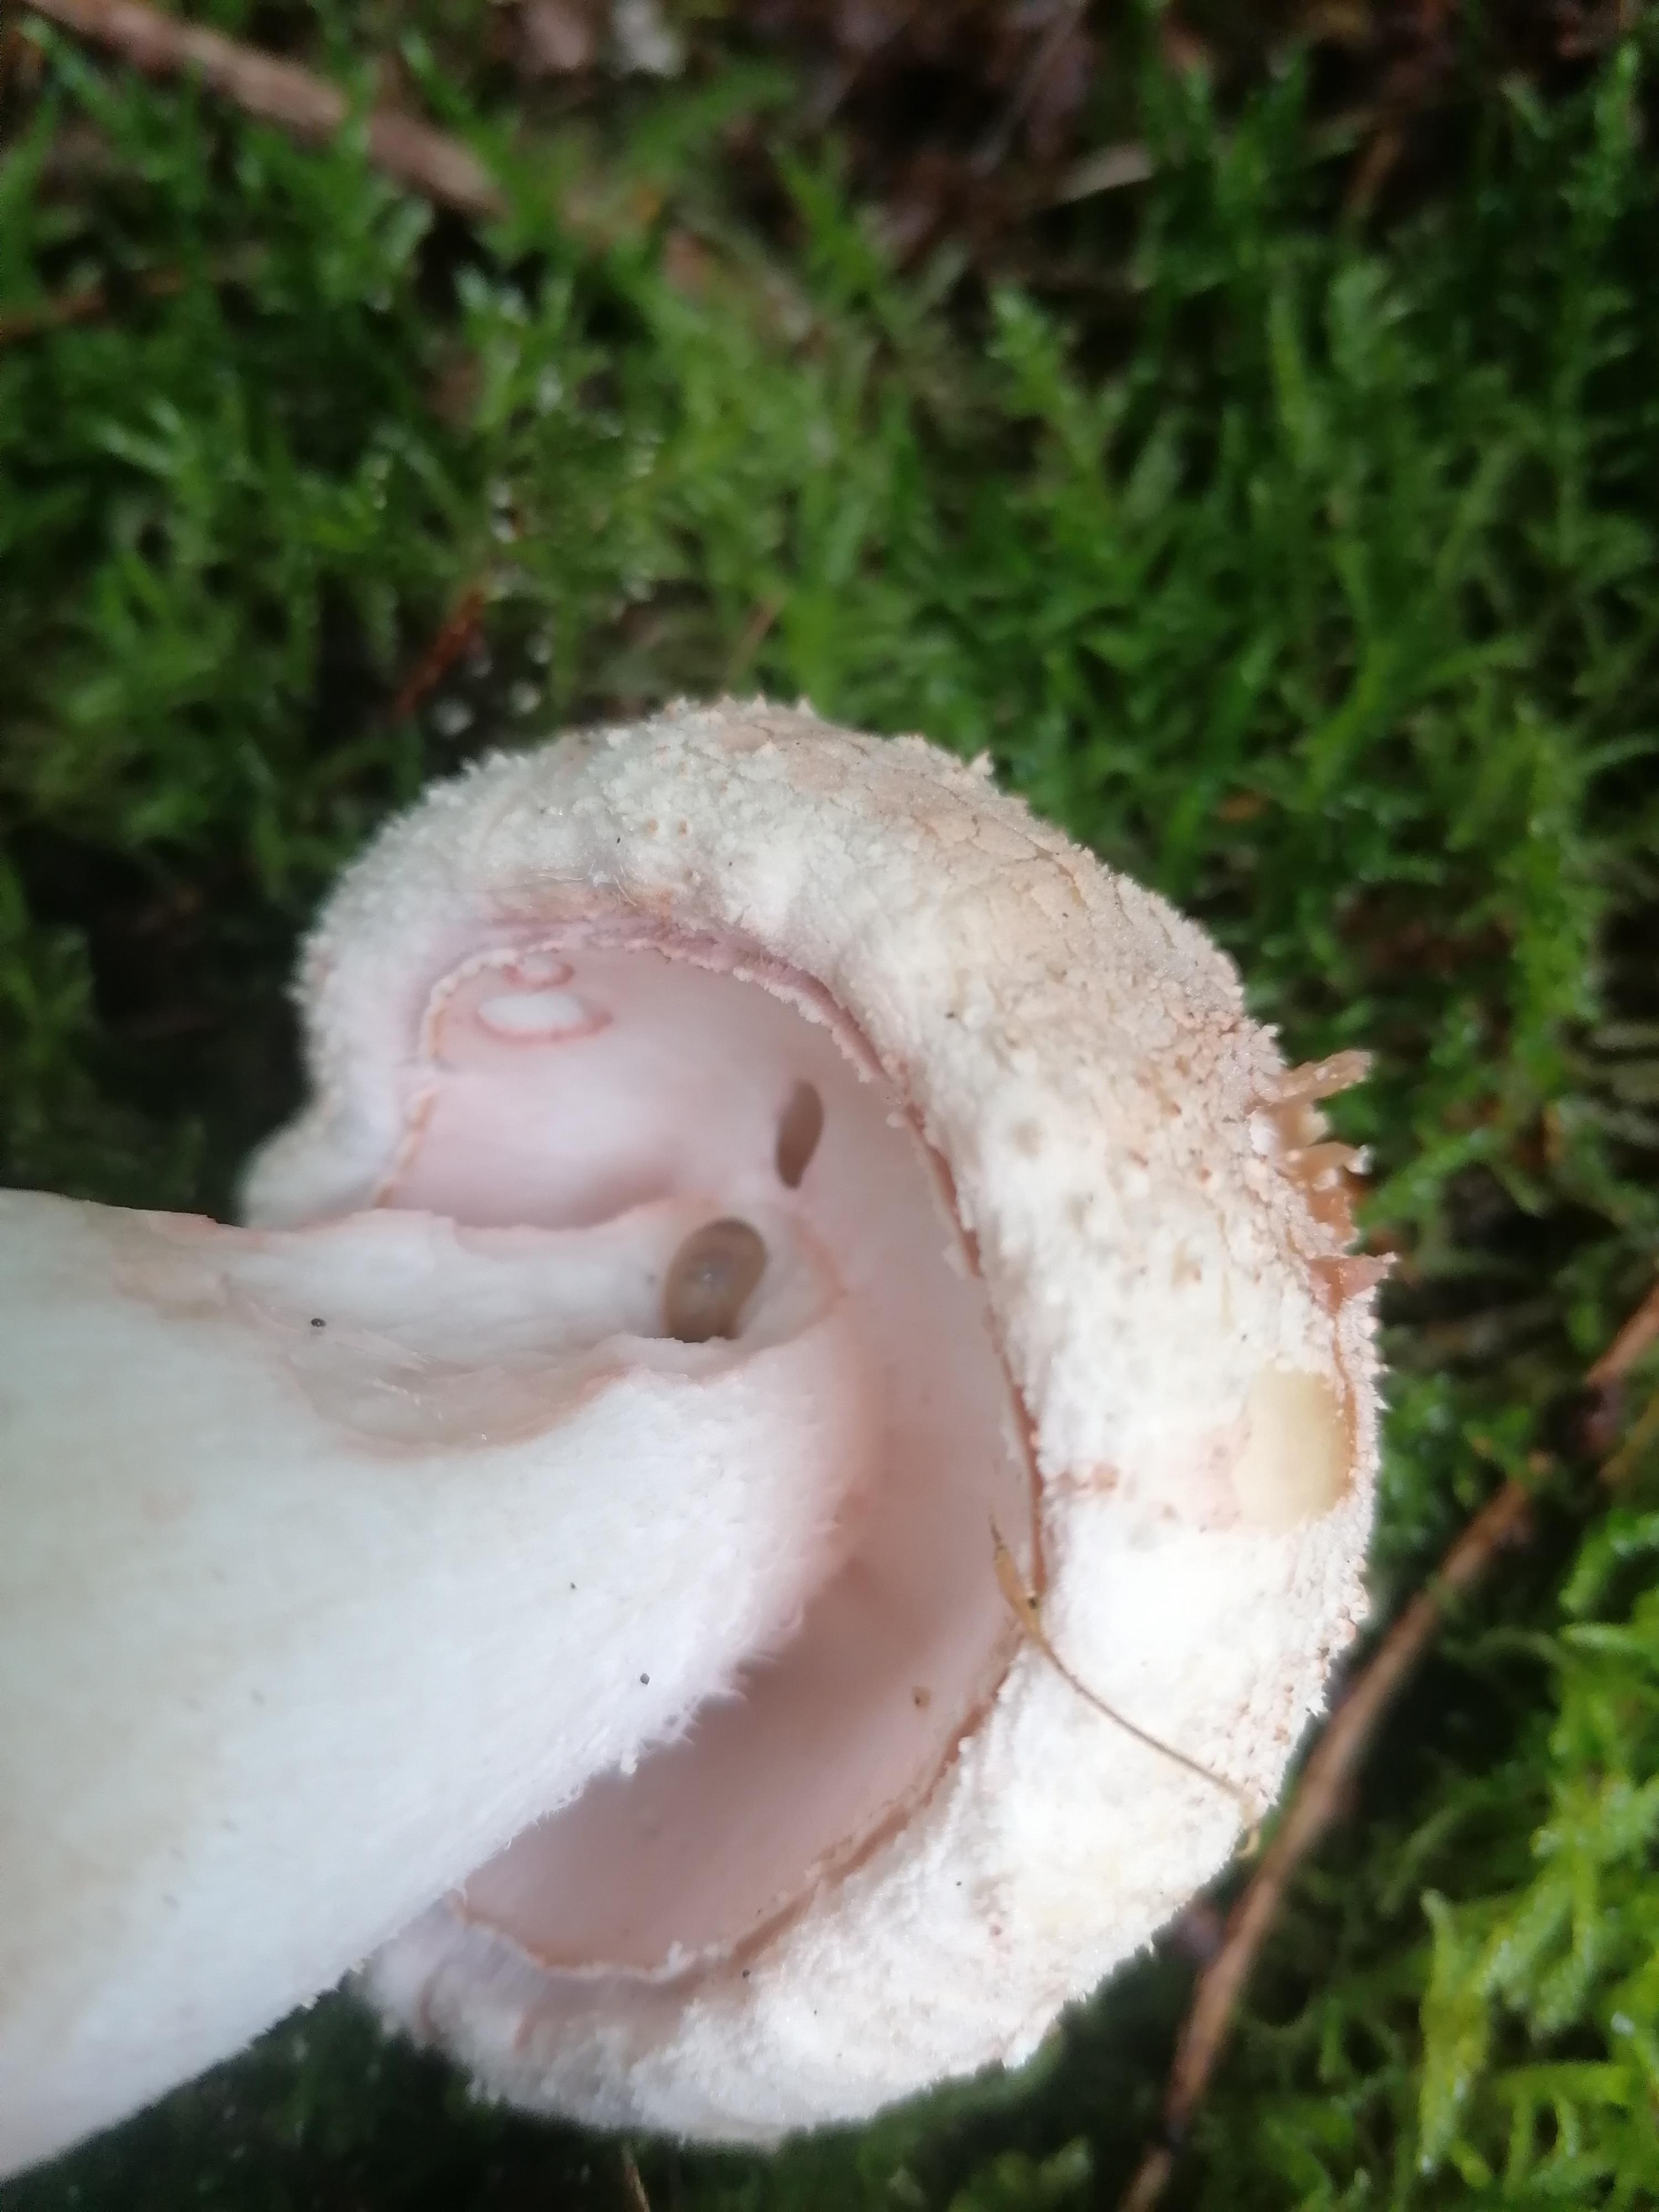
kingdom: Fungi
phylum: Basidiomycota
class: Agaricomycetes
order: Agaricales
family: Amanitaceae
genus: Amanita
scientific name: Amanita rubescens
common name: rødmende fluesvamp
